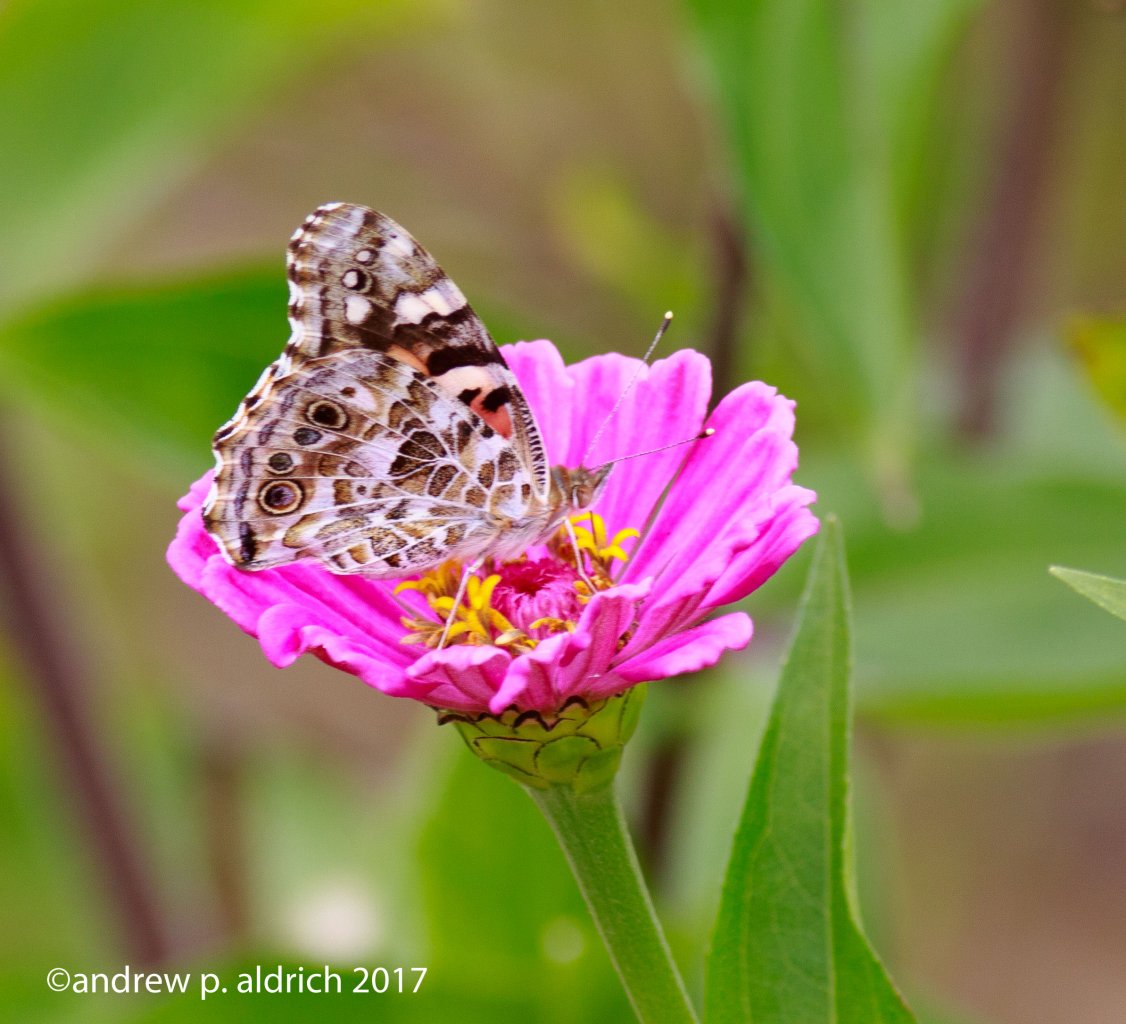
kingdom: Animalia
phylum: Arthropoda
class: Insecta
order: Lepidoptera
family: Nymphalidae
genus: Vanessa
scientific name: Vanessa cardui
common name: Painted Lady
